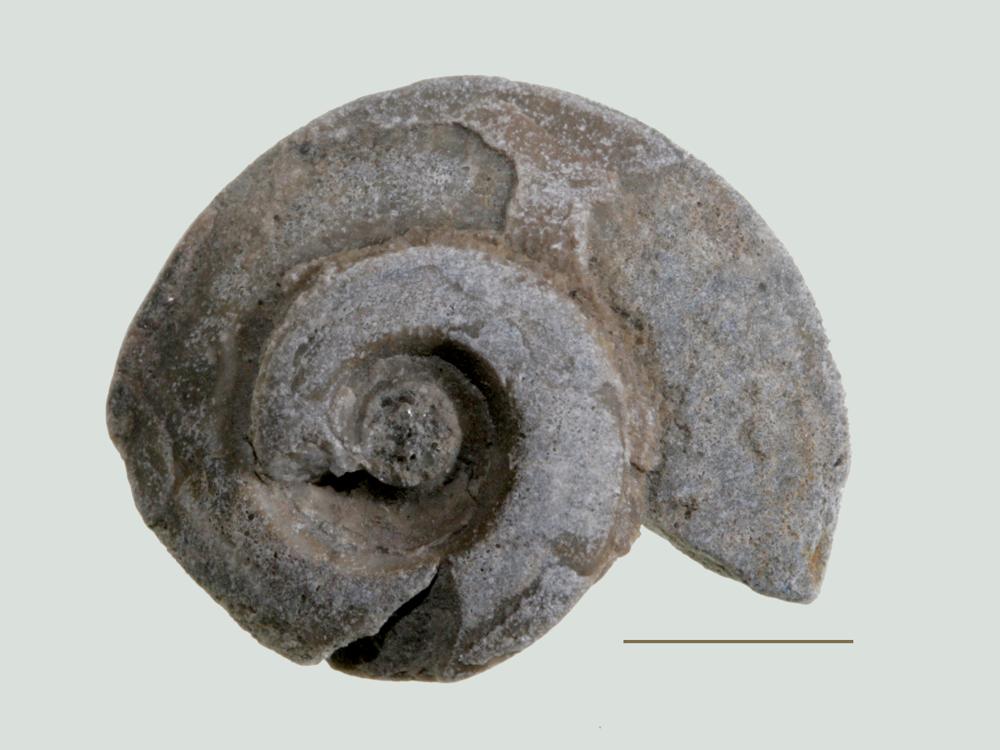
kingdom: Animalia
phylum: Mollusca
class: Gastropoda
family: Lesueurillidae
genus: Pararaphistoma
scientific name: Pararaphistoma Helicites qualteriata
